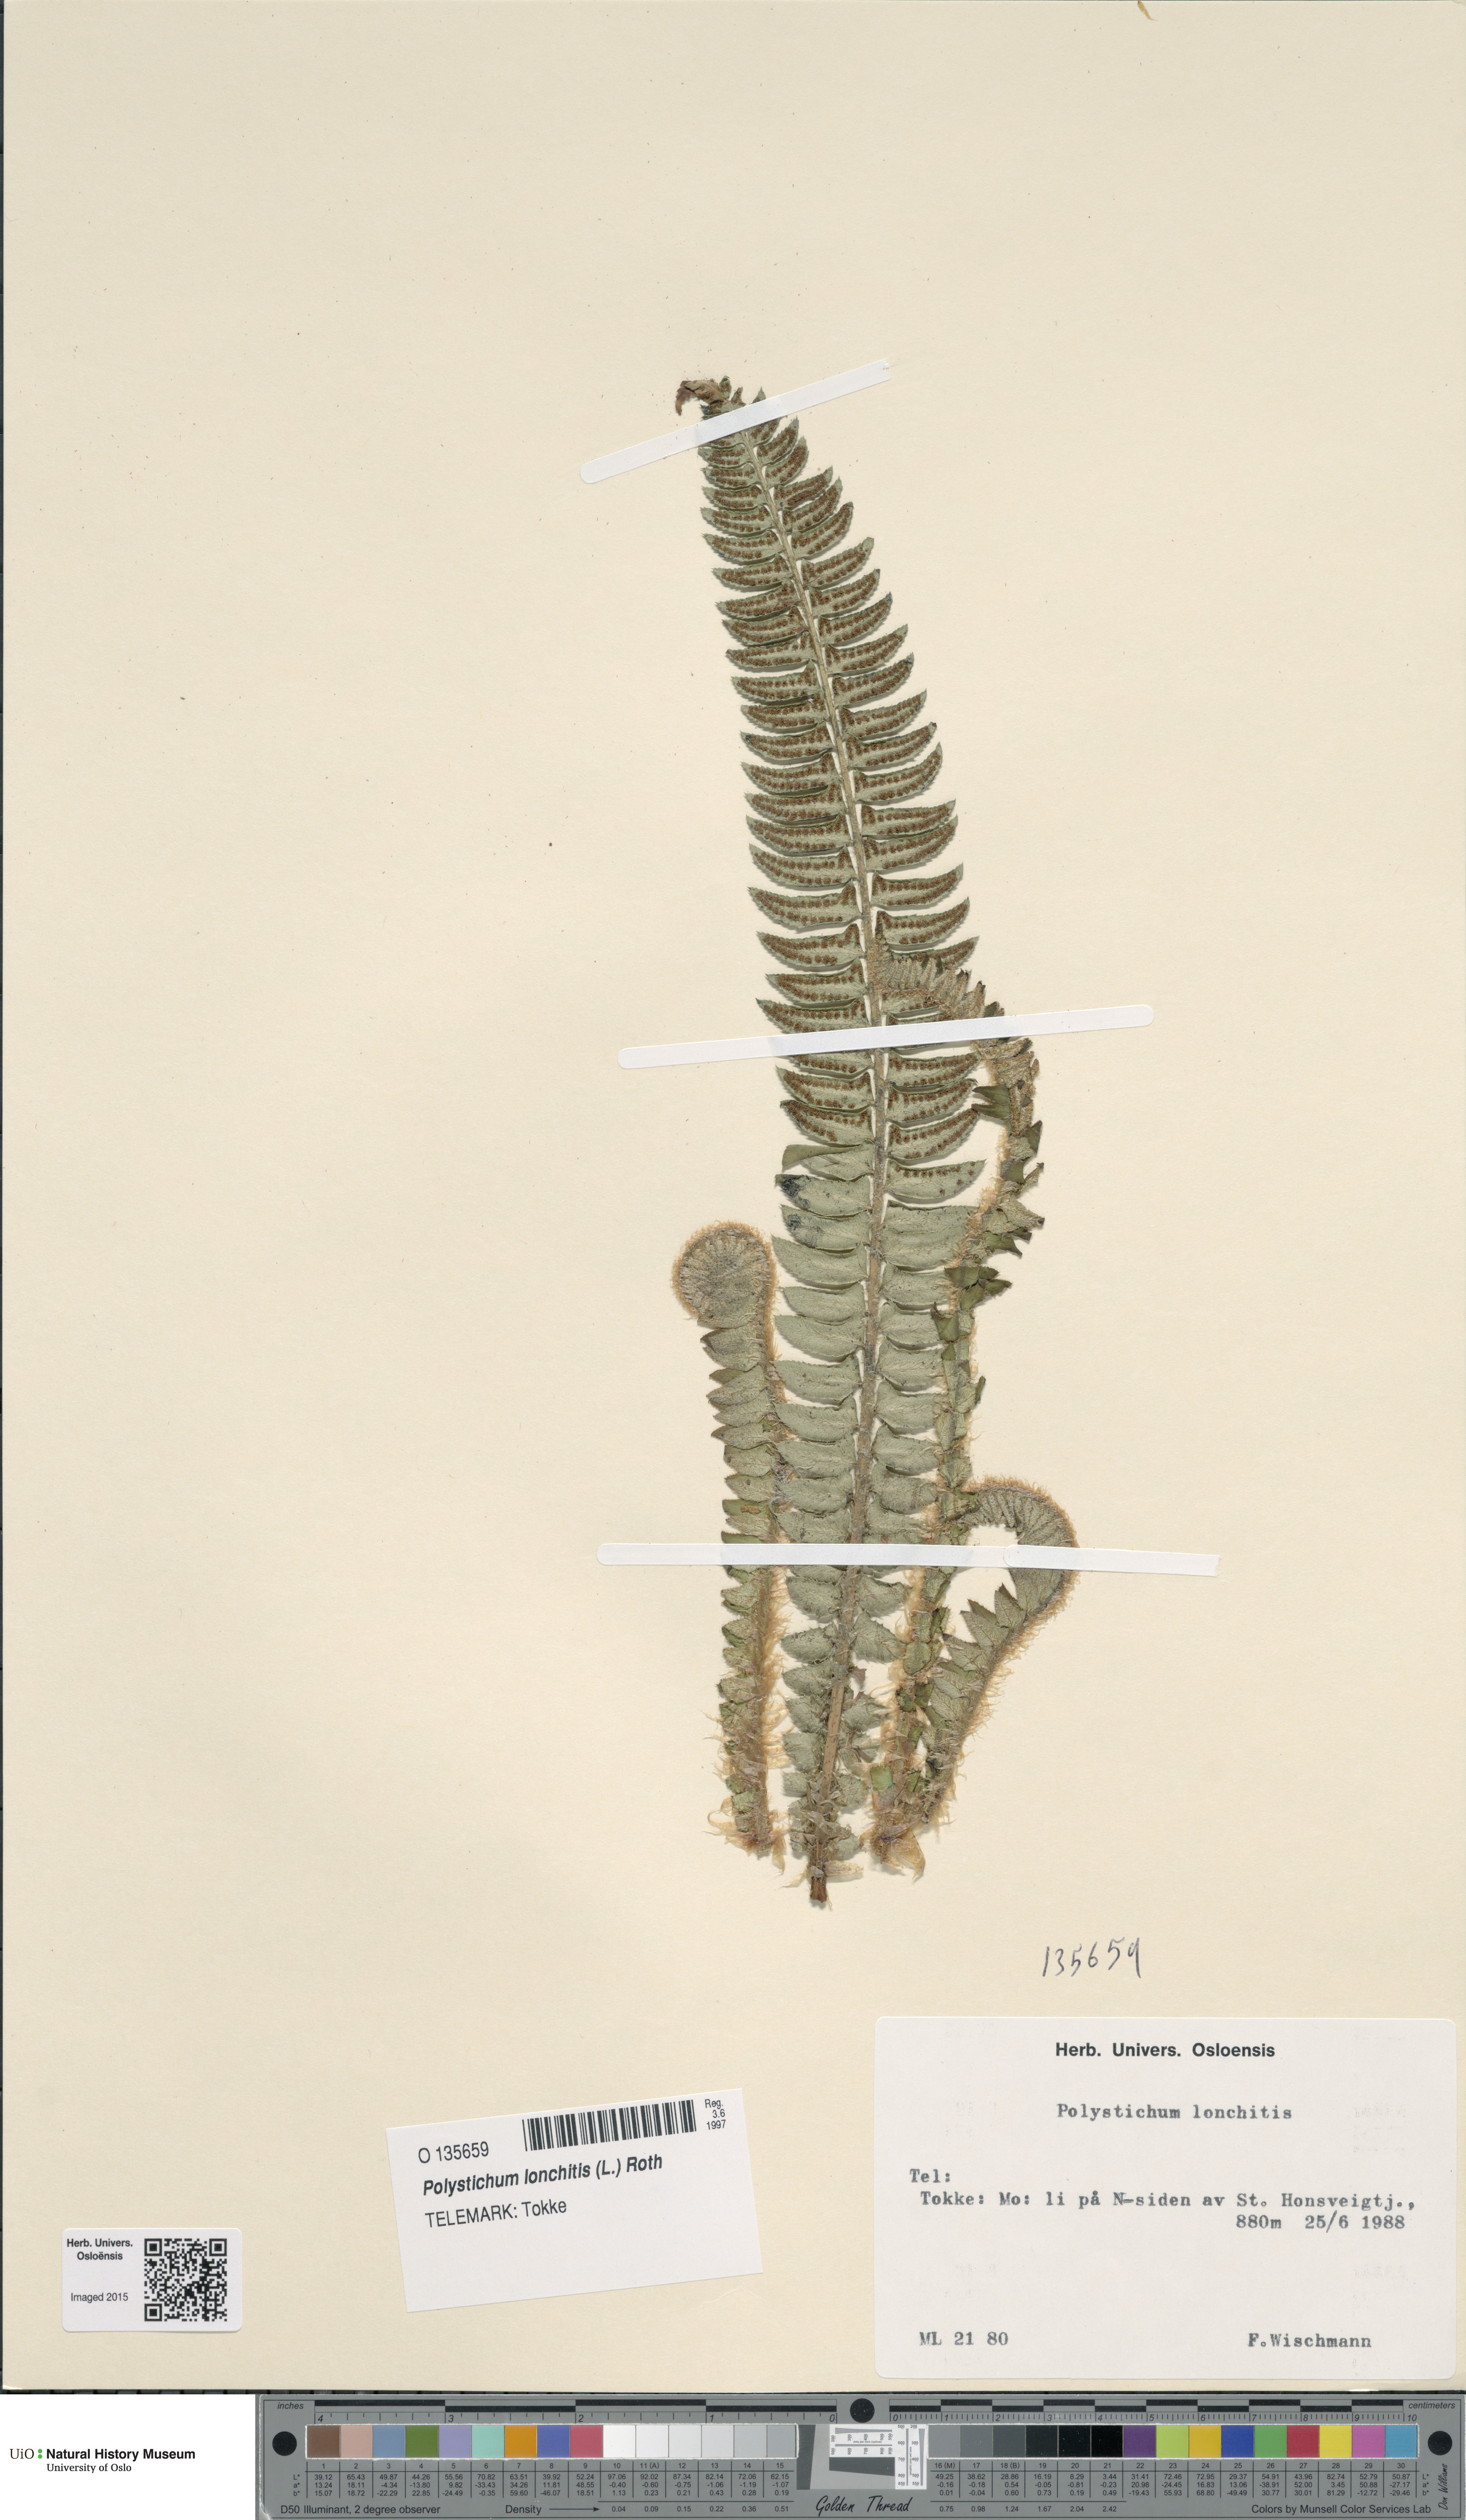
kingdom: Plantae
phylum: Tracheophyta
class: Polypodiopsida
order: Polypodiales
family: Dryopteridaceae
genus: Polystichum
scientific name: Polystichum lonchitis
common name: Holly fern
